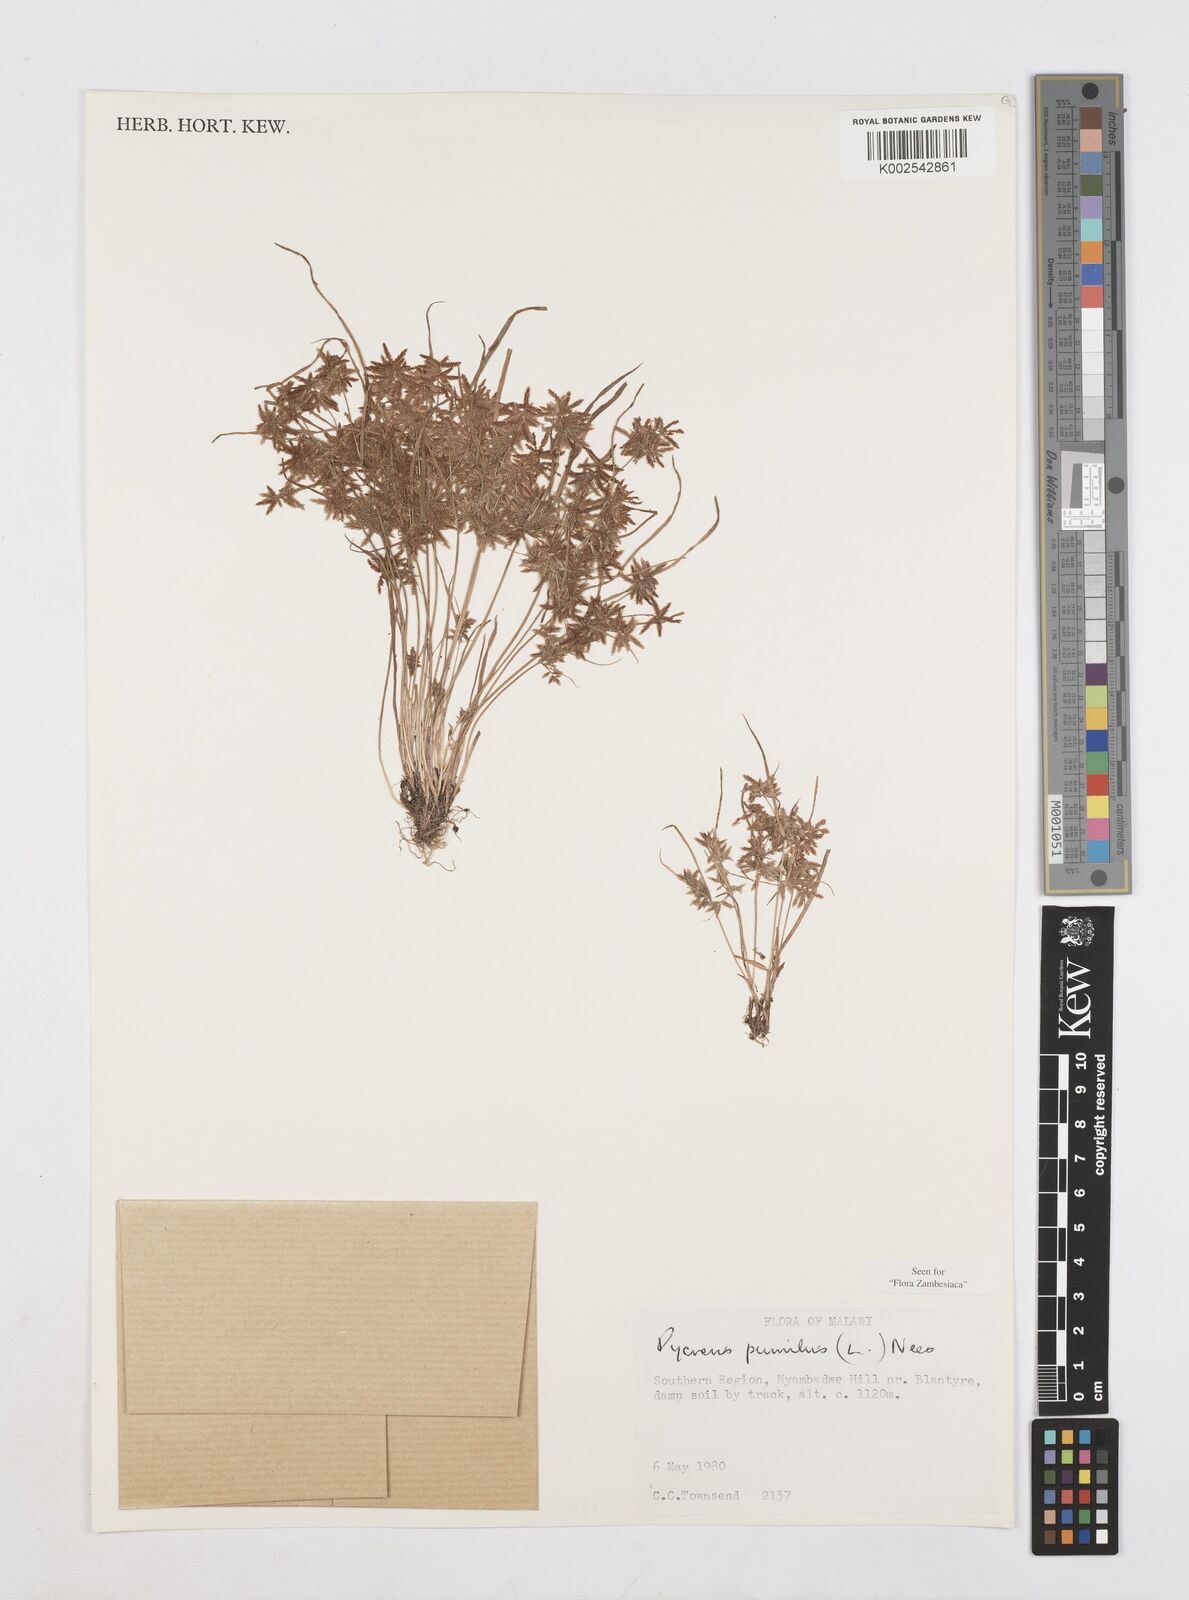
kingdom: Plantae
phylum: Tracheophyta
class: Liliopsida
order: Poales
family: Cyperaceae
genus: Cyperus
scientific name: Cyperus pumilus
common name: Low flatsedge
